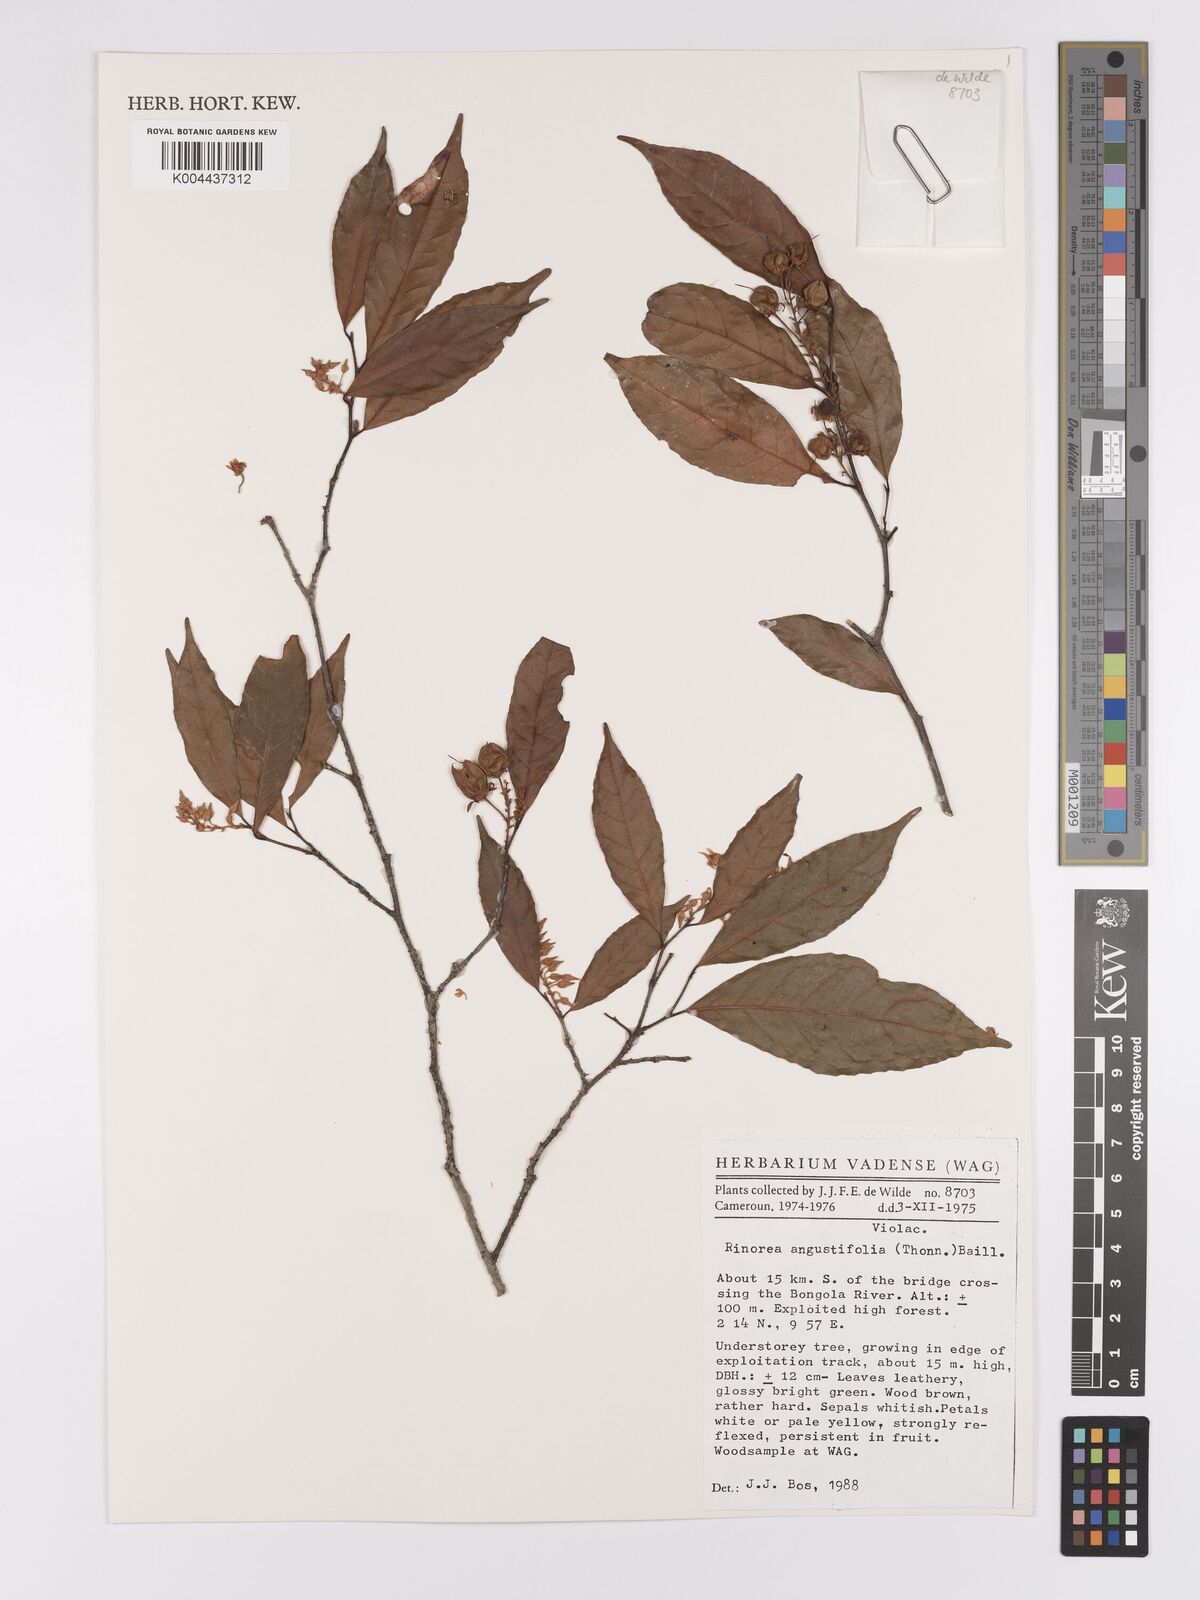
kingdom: Plantae
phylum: Tracheophyta
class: Magnoliopsida
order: Malpighiales
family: Violaceae
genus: Rinorea
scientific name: Rinorea angustifolia
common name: White violet-bush
